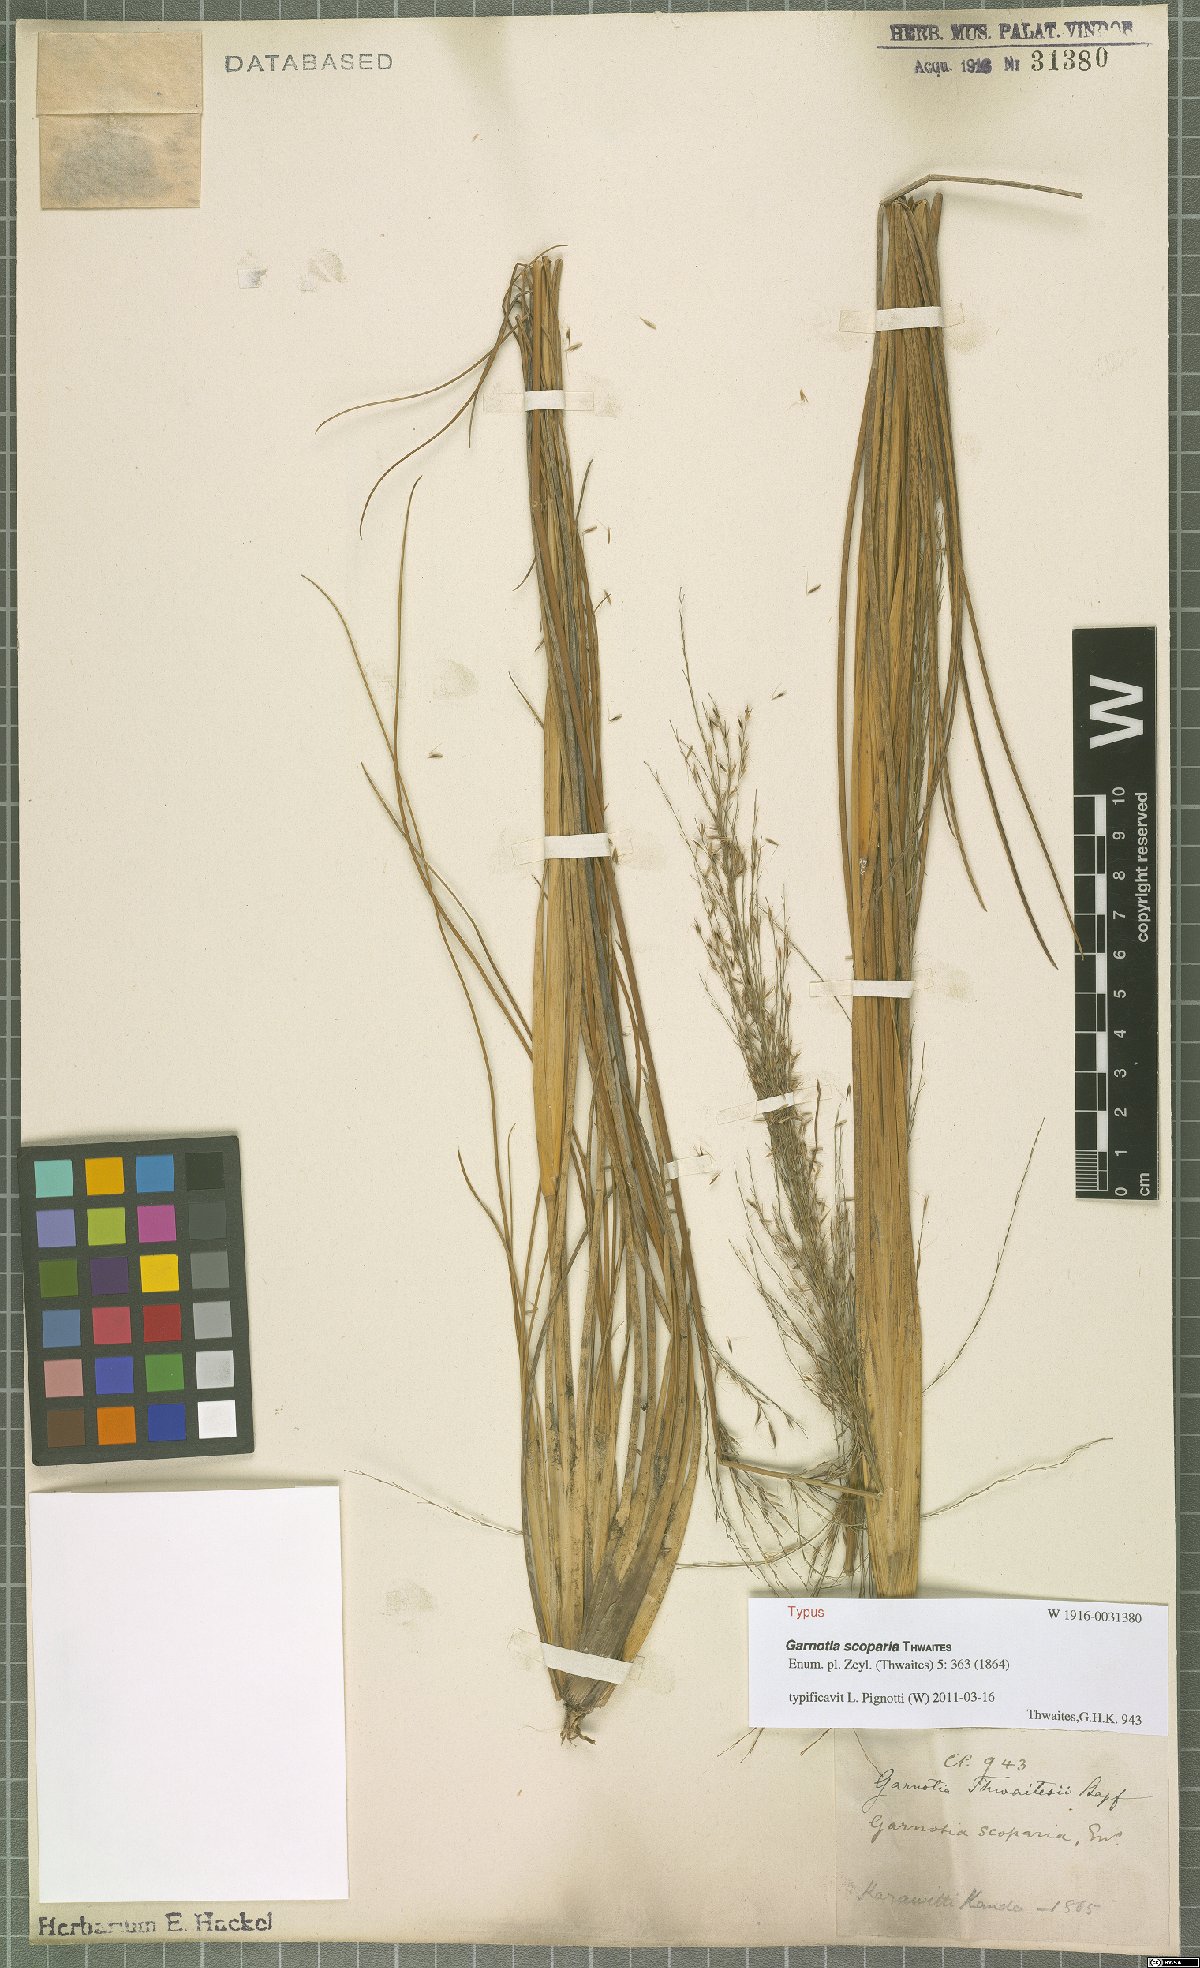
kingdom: Plantae
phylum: Tracheophyta
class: Liliopsida
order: Poales
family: Poaceae
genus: Garnotia
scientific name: Garnotia scoparia
